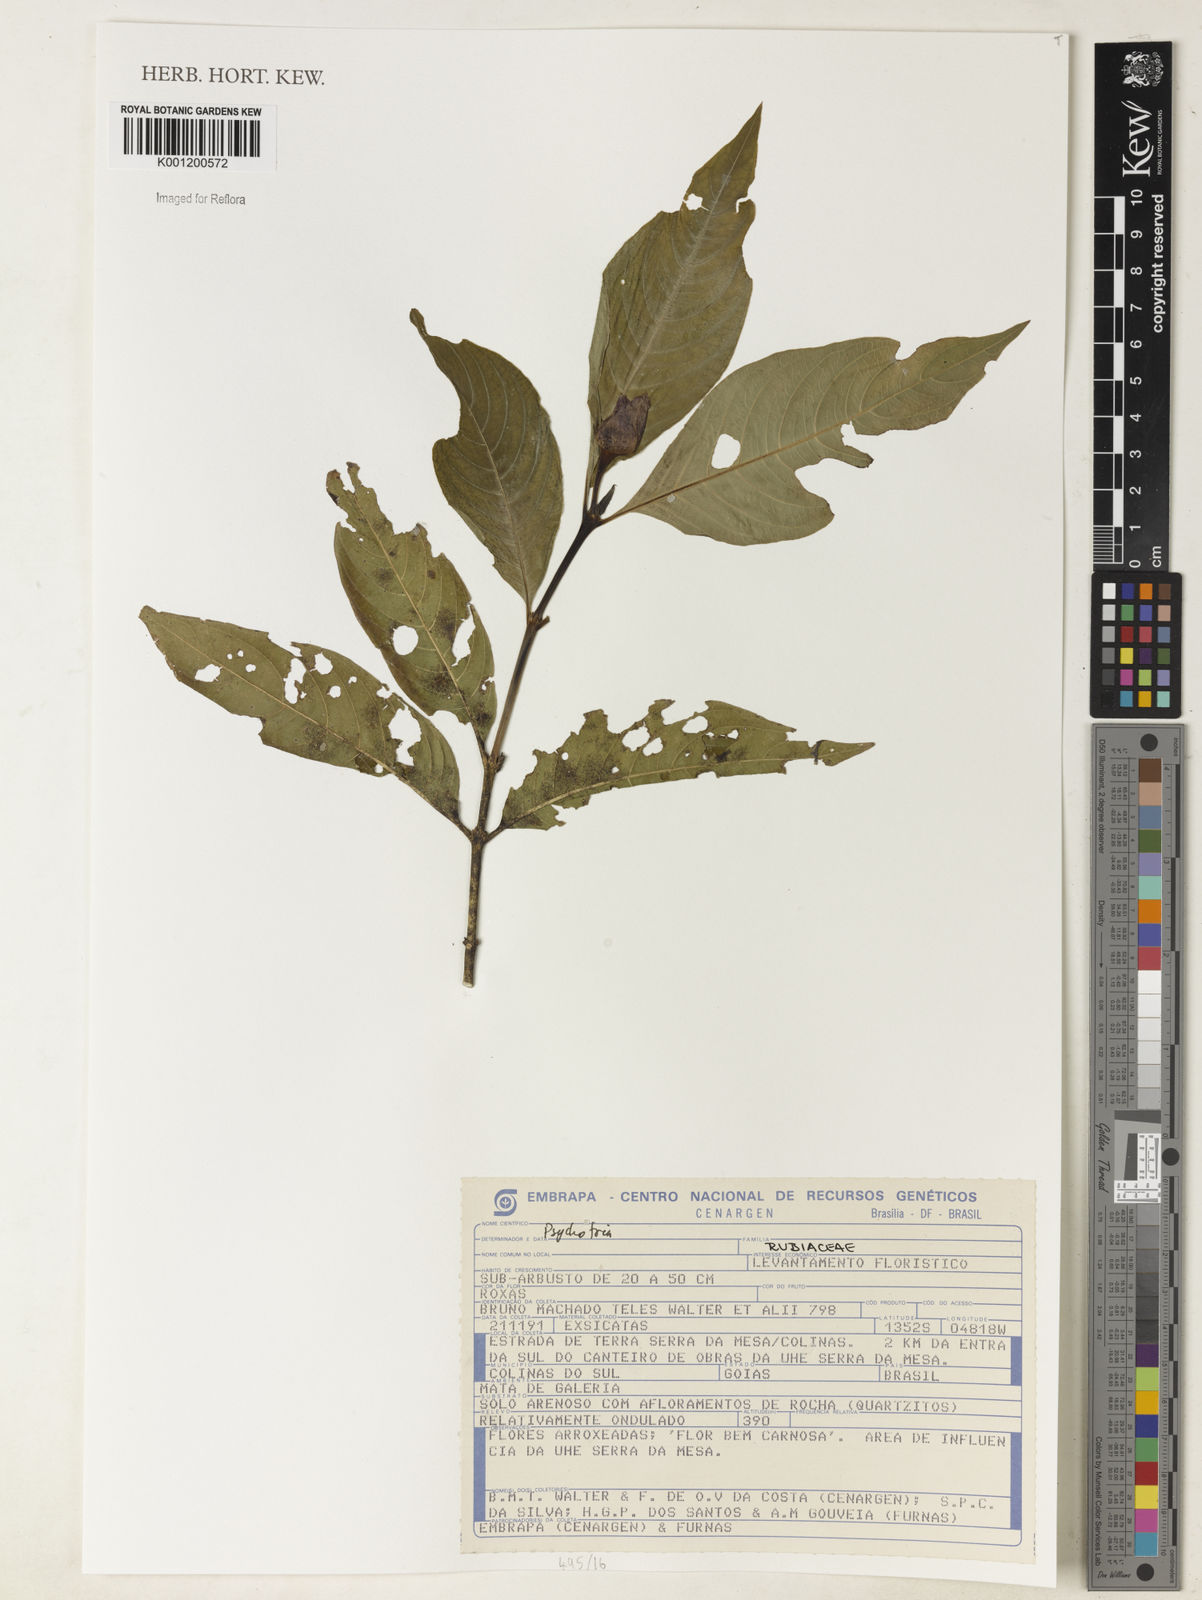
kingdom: Plantae
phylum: Tracheophyta
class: Magnoliopsida
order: Gentianales
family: Rubiaceae
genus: Psychotria
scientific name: Psychotria
